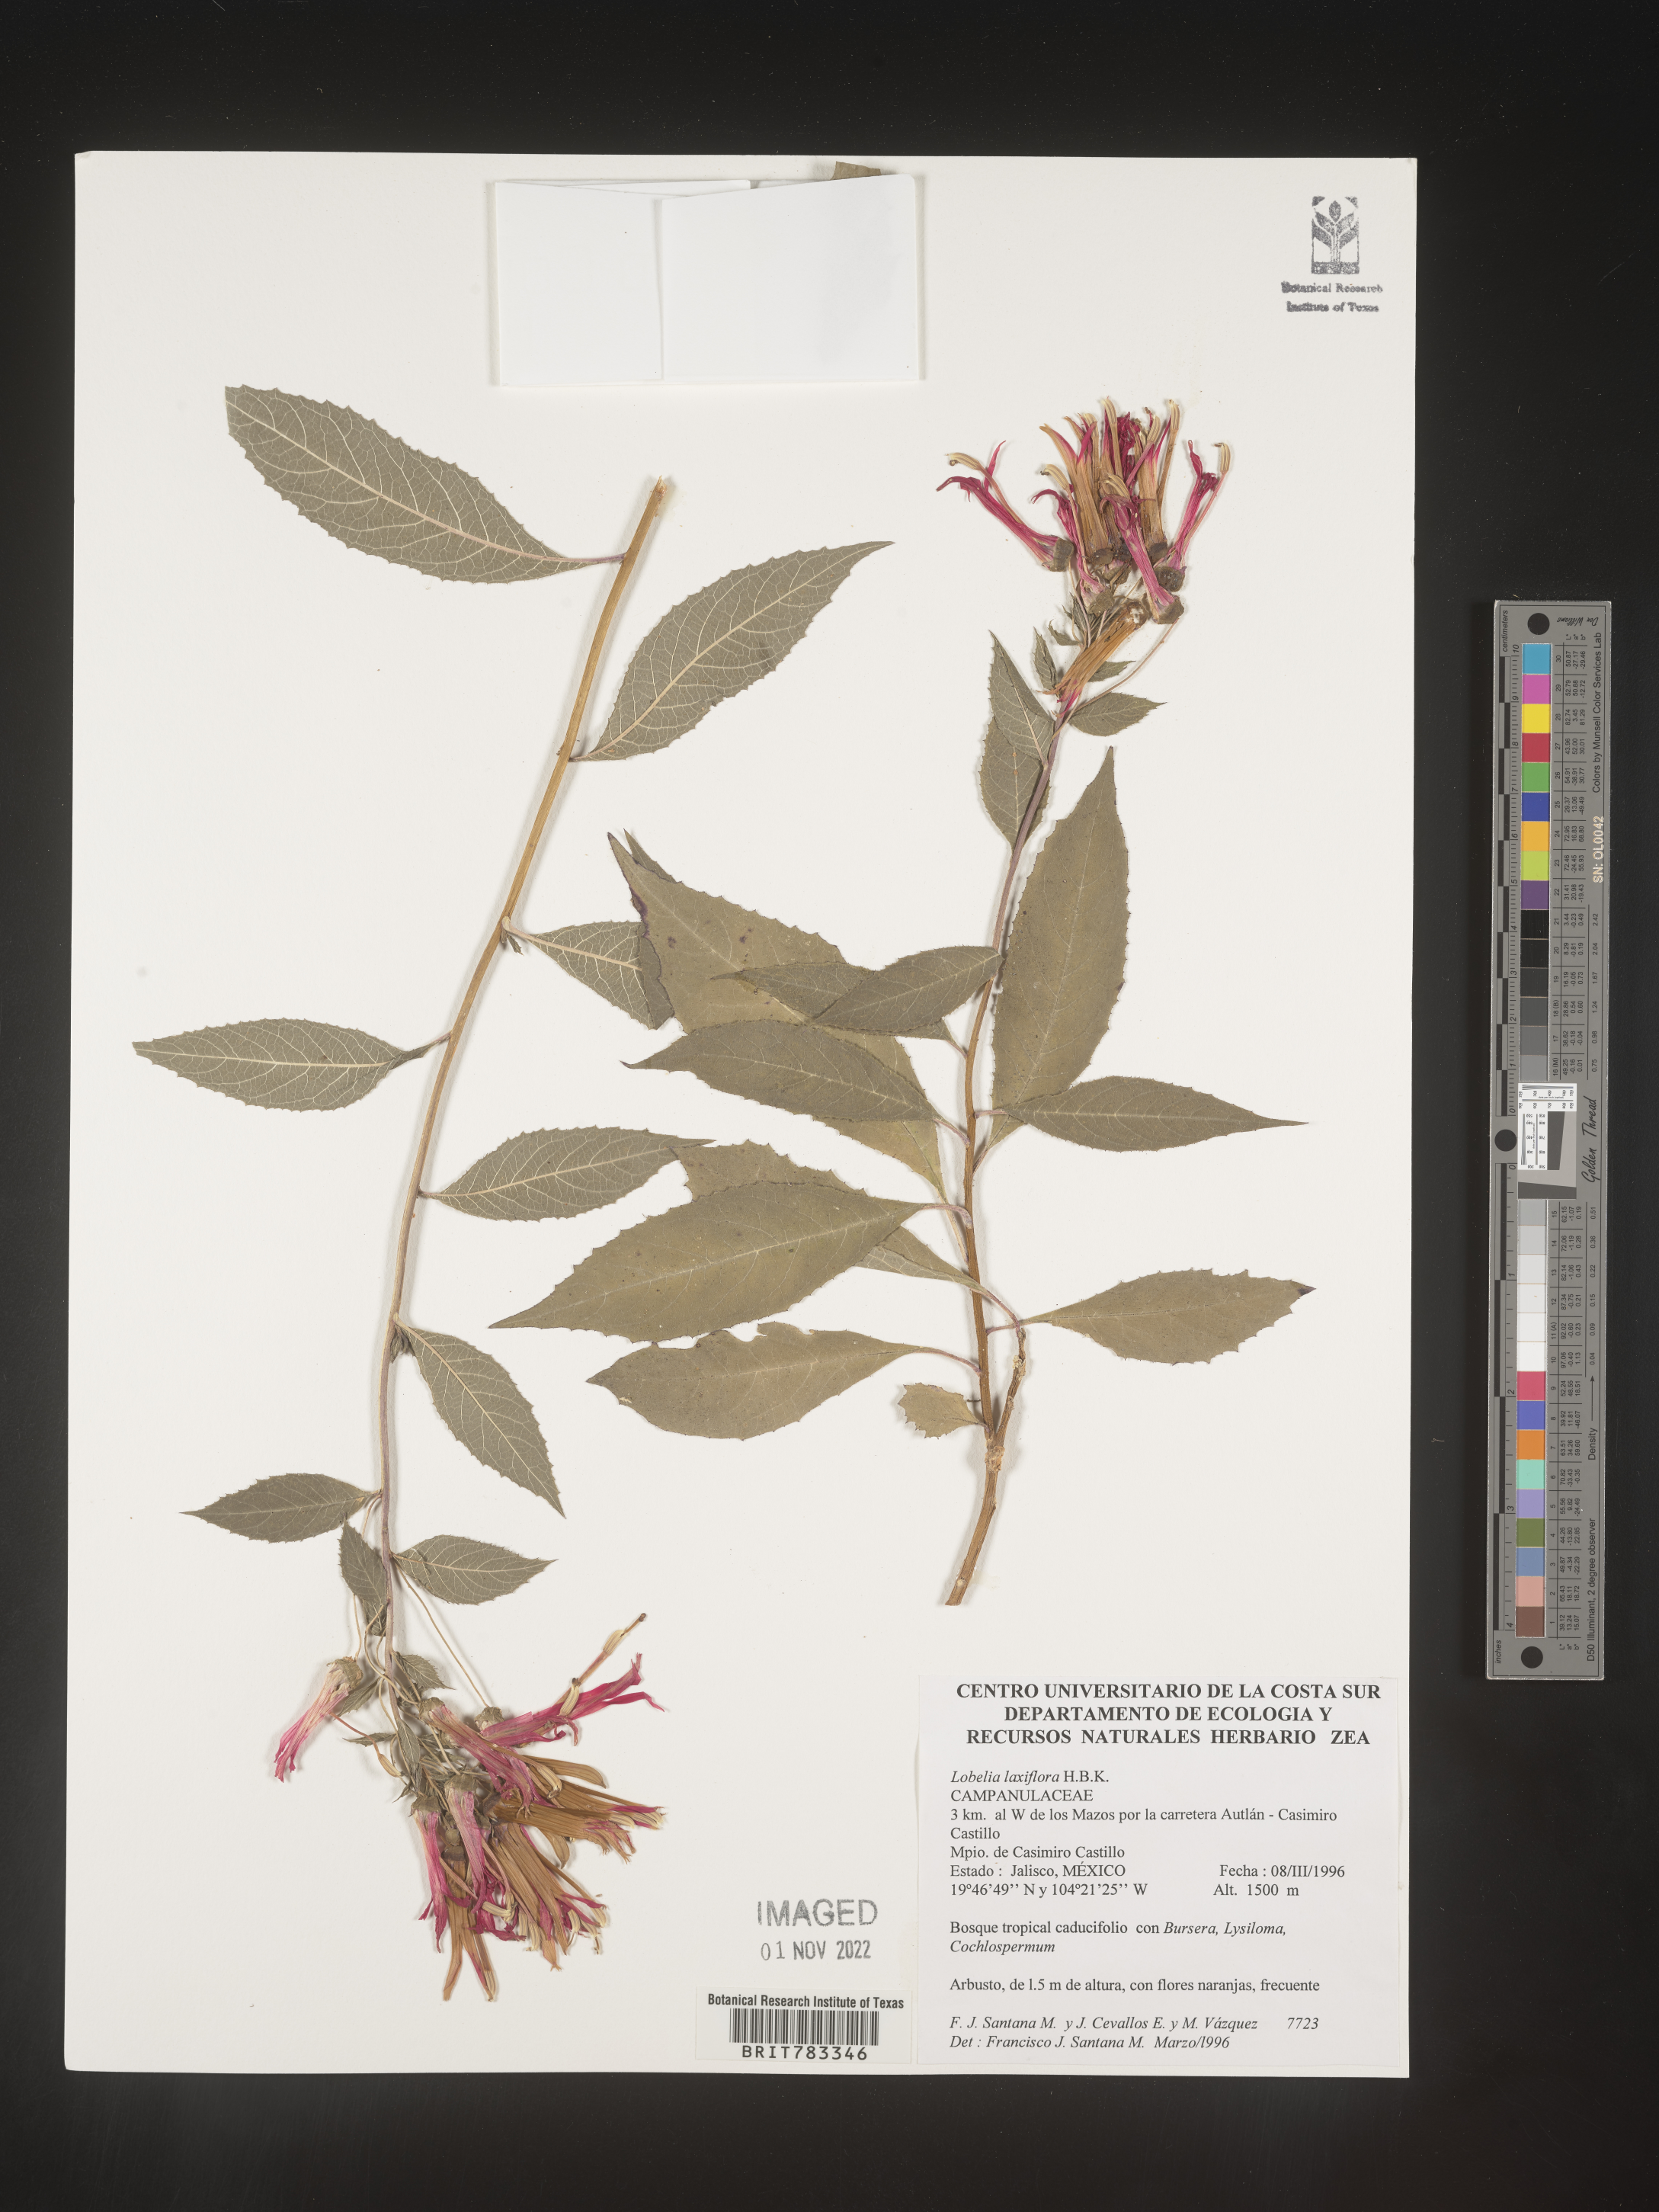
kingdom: Plantae
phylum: Tracheophyta
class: Magnoliopsida
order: Asterales
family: Campanulaceae
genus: Lobelia
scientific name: Lobelia
